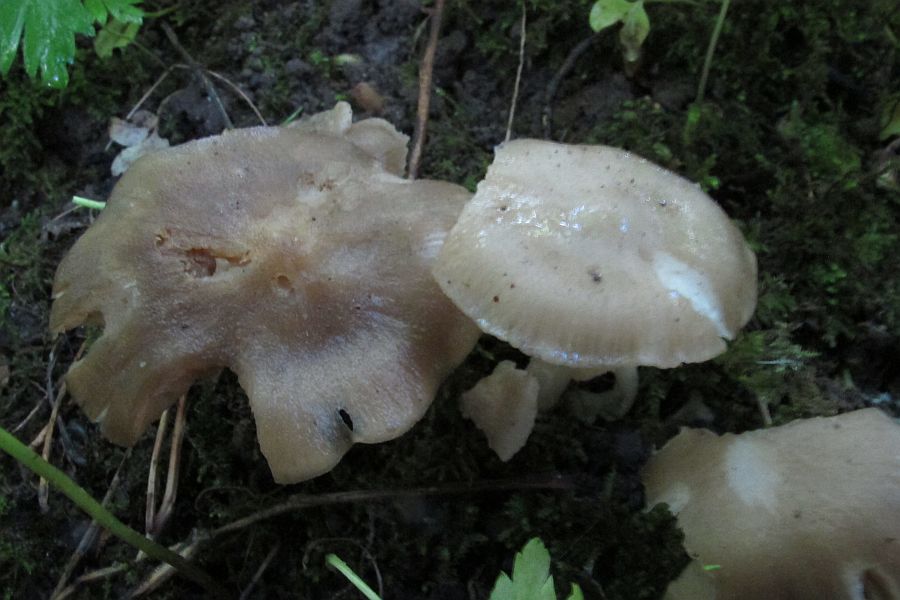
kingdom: Fungi
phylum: Basidiomycota
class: Agaricomycetes
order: Agaricales
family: Entolomataceae
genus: Entoloma
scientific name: Entoloma clypeatum
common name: flammet rødblad
